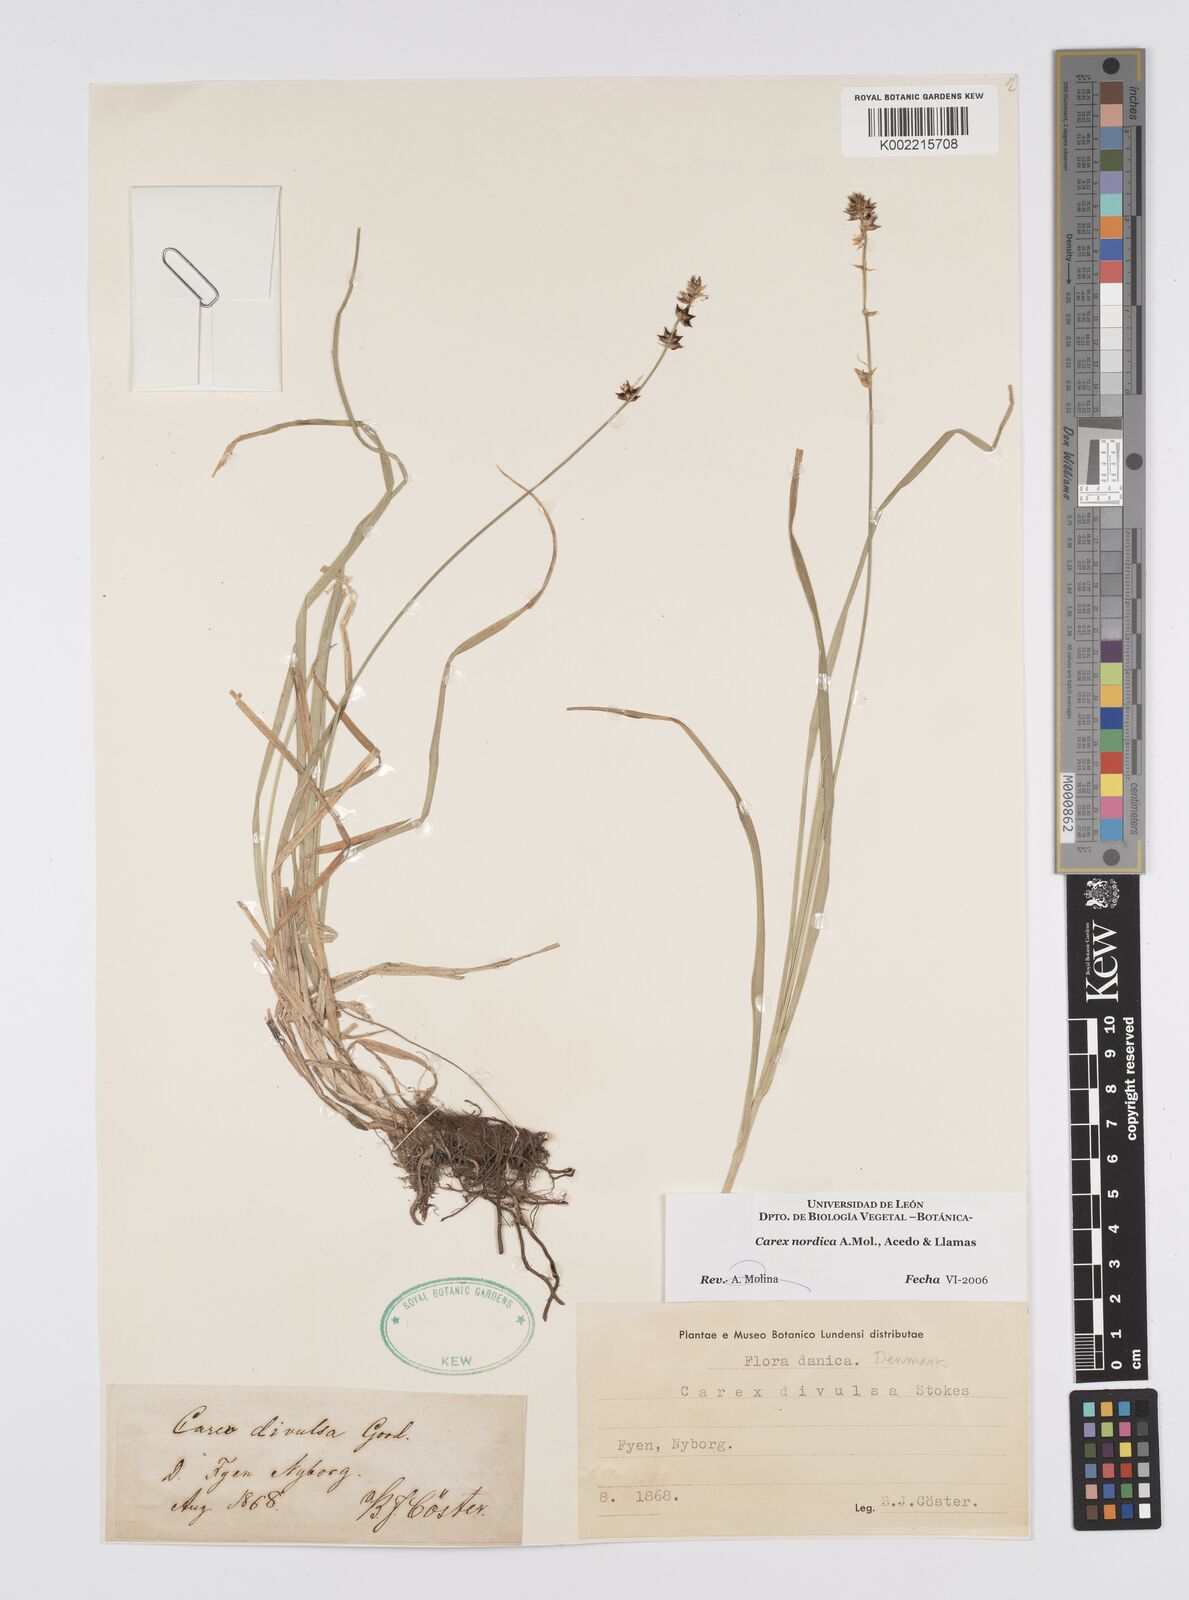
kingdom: Plantae
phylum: Tracheophyta
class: Liliopsida
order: Poales
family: Cyperaceae
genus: Carex
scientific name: Carex nordica
